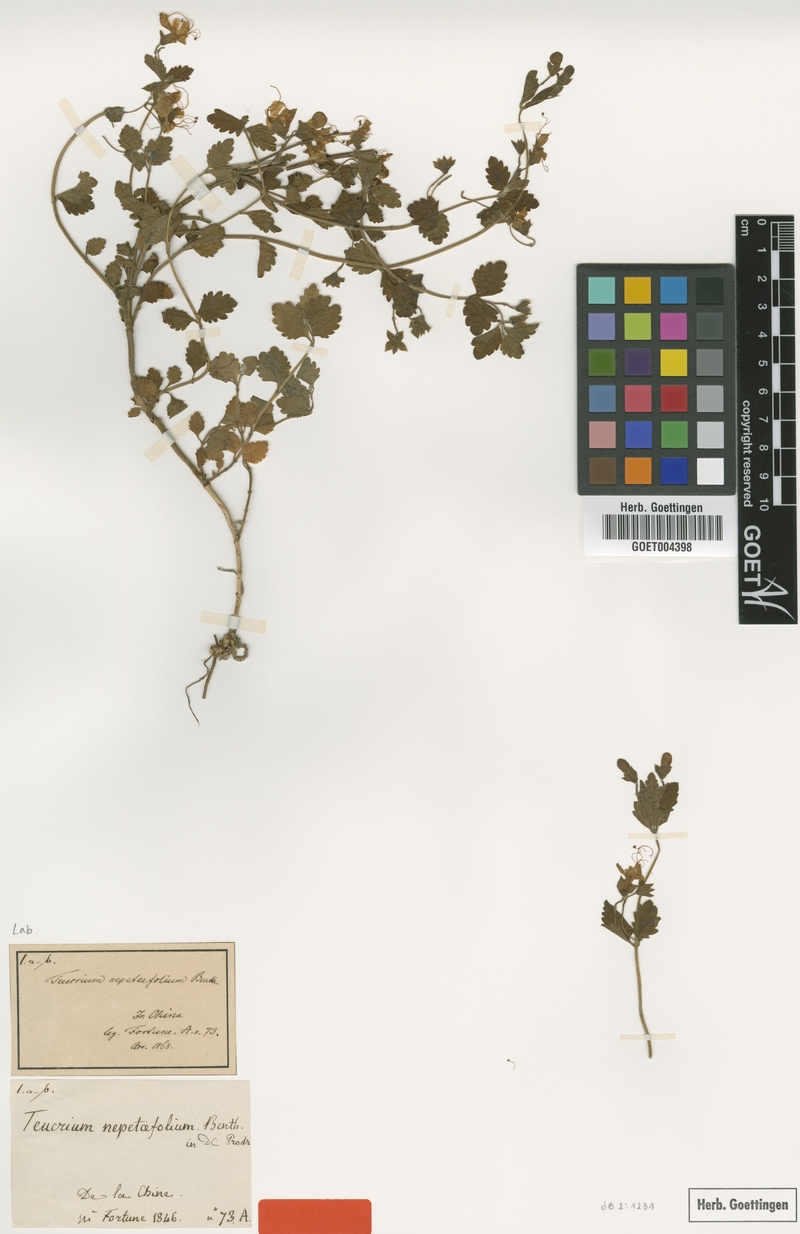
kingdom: Plantae
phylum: Tracheophyta
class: Magnoliopsida
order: Lamiales
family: Lamiaceae
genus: Schnabelia
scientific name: Schnabelia nepetifolia
